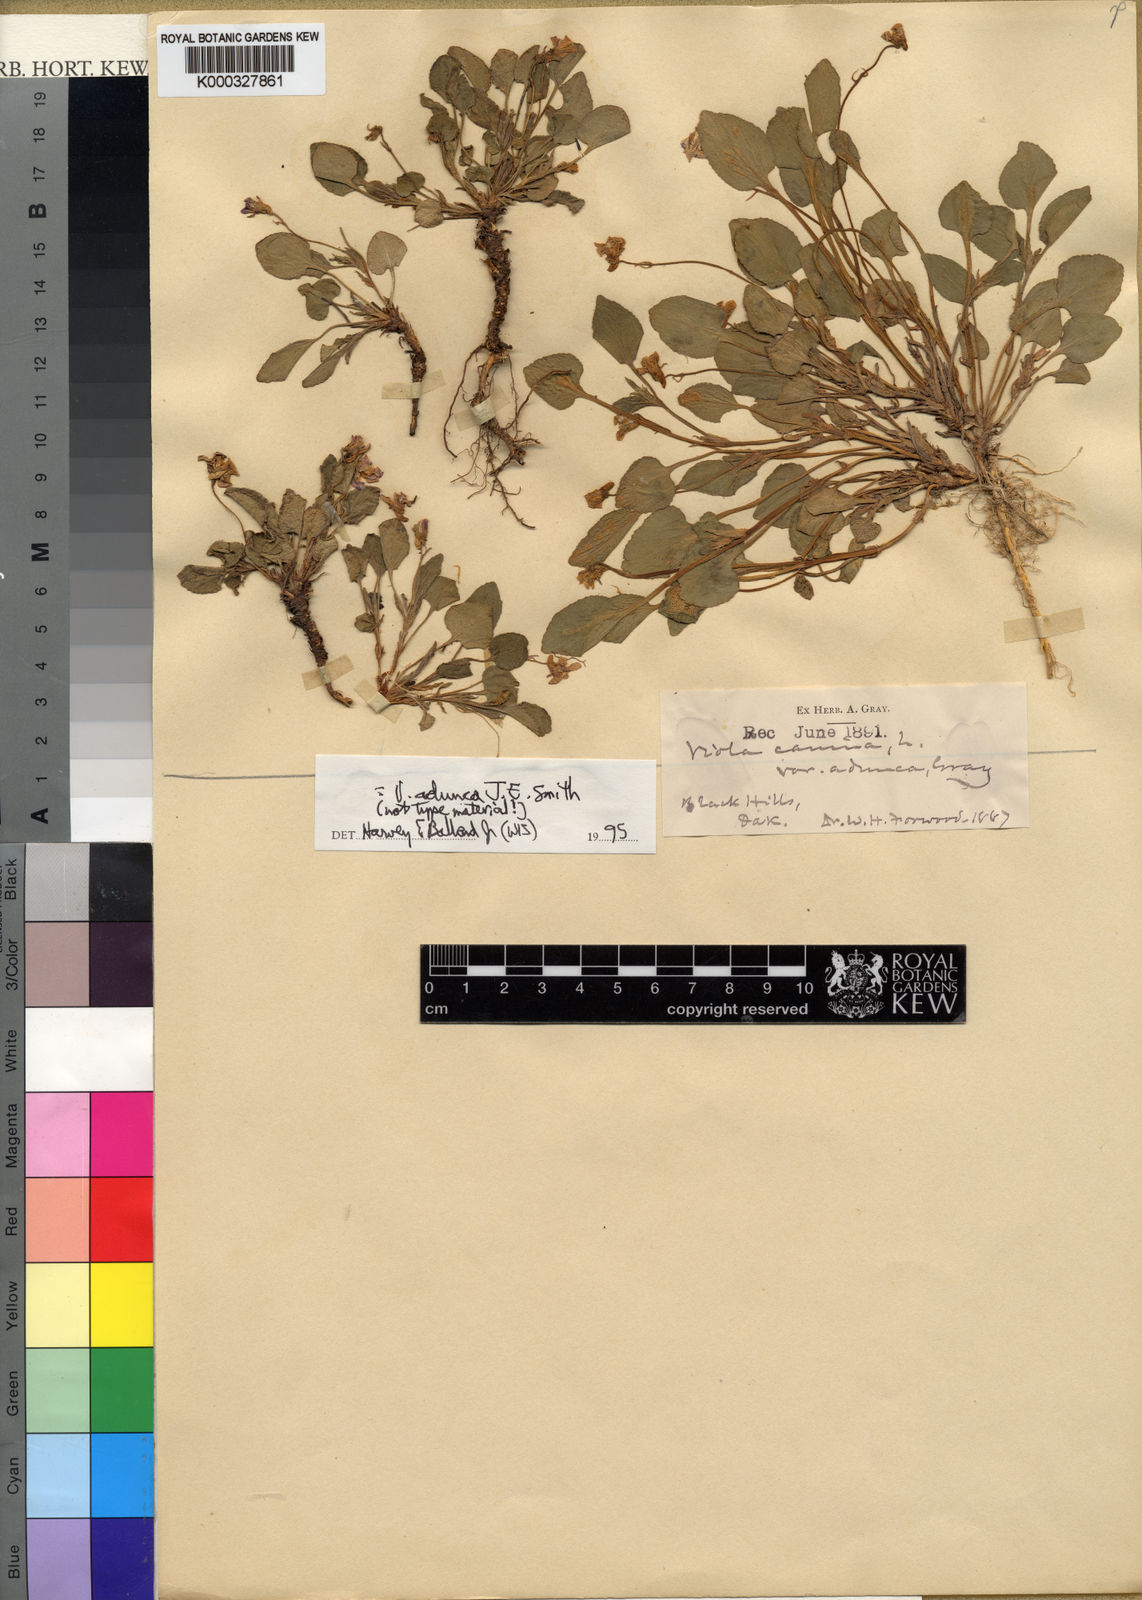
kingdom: Plantae
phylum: Tracheophyta
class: Magnoliopsida
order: Malpighiales
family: Violaceae
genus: Viola
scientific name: Viola adunca
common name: Sand violet
